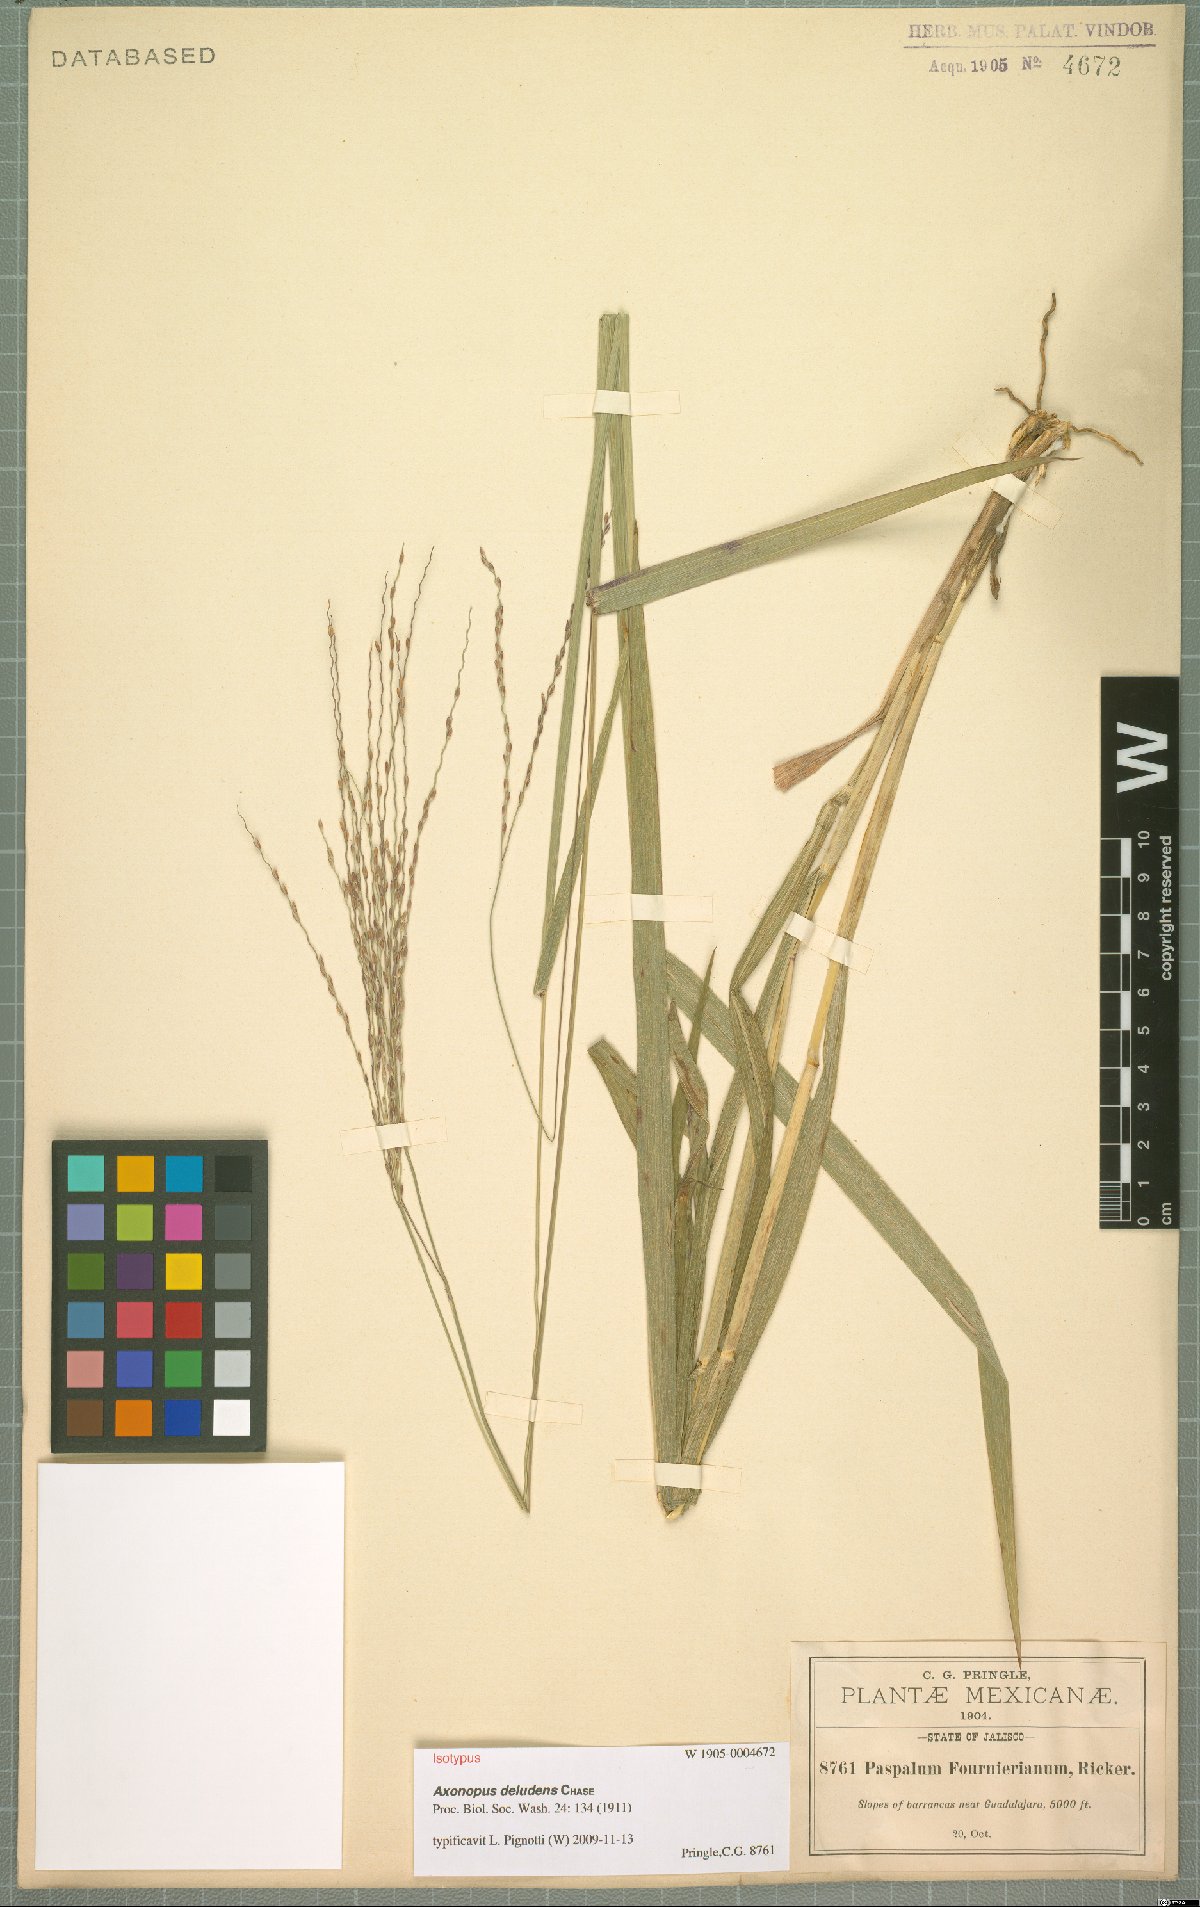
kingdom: Plantae
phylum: Tracheophyta
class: Liliopsida
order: Poales
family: Poaceae
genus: Axonopus
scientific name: Axonopus scoparius
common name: Imperial grass
